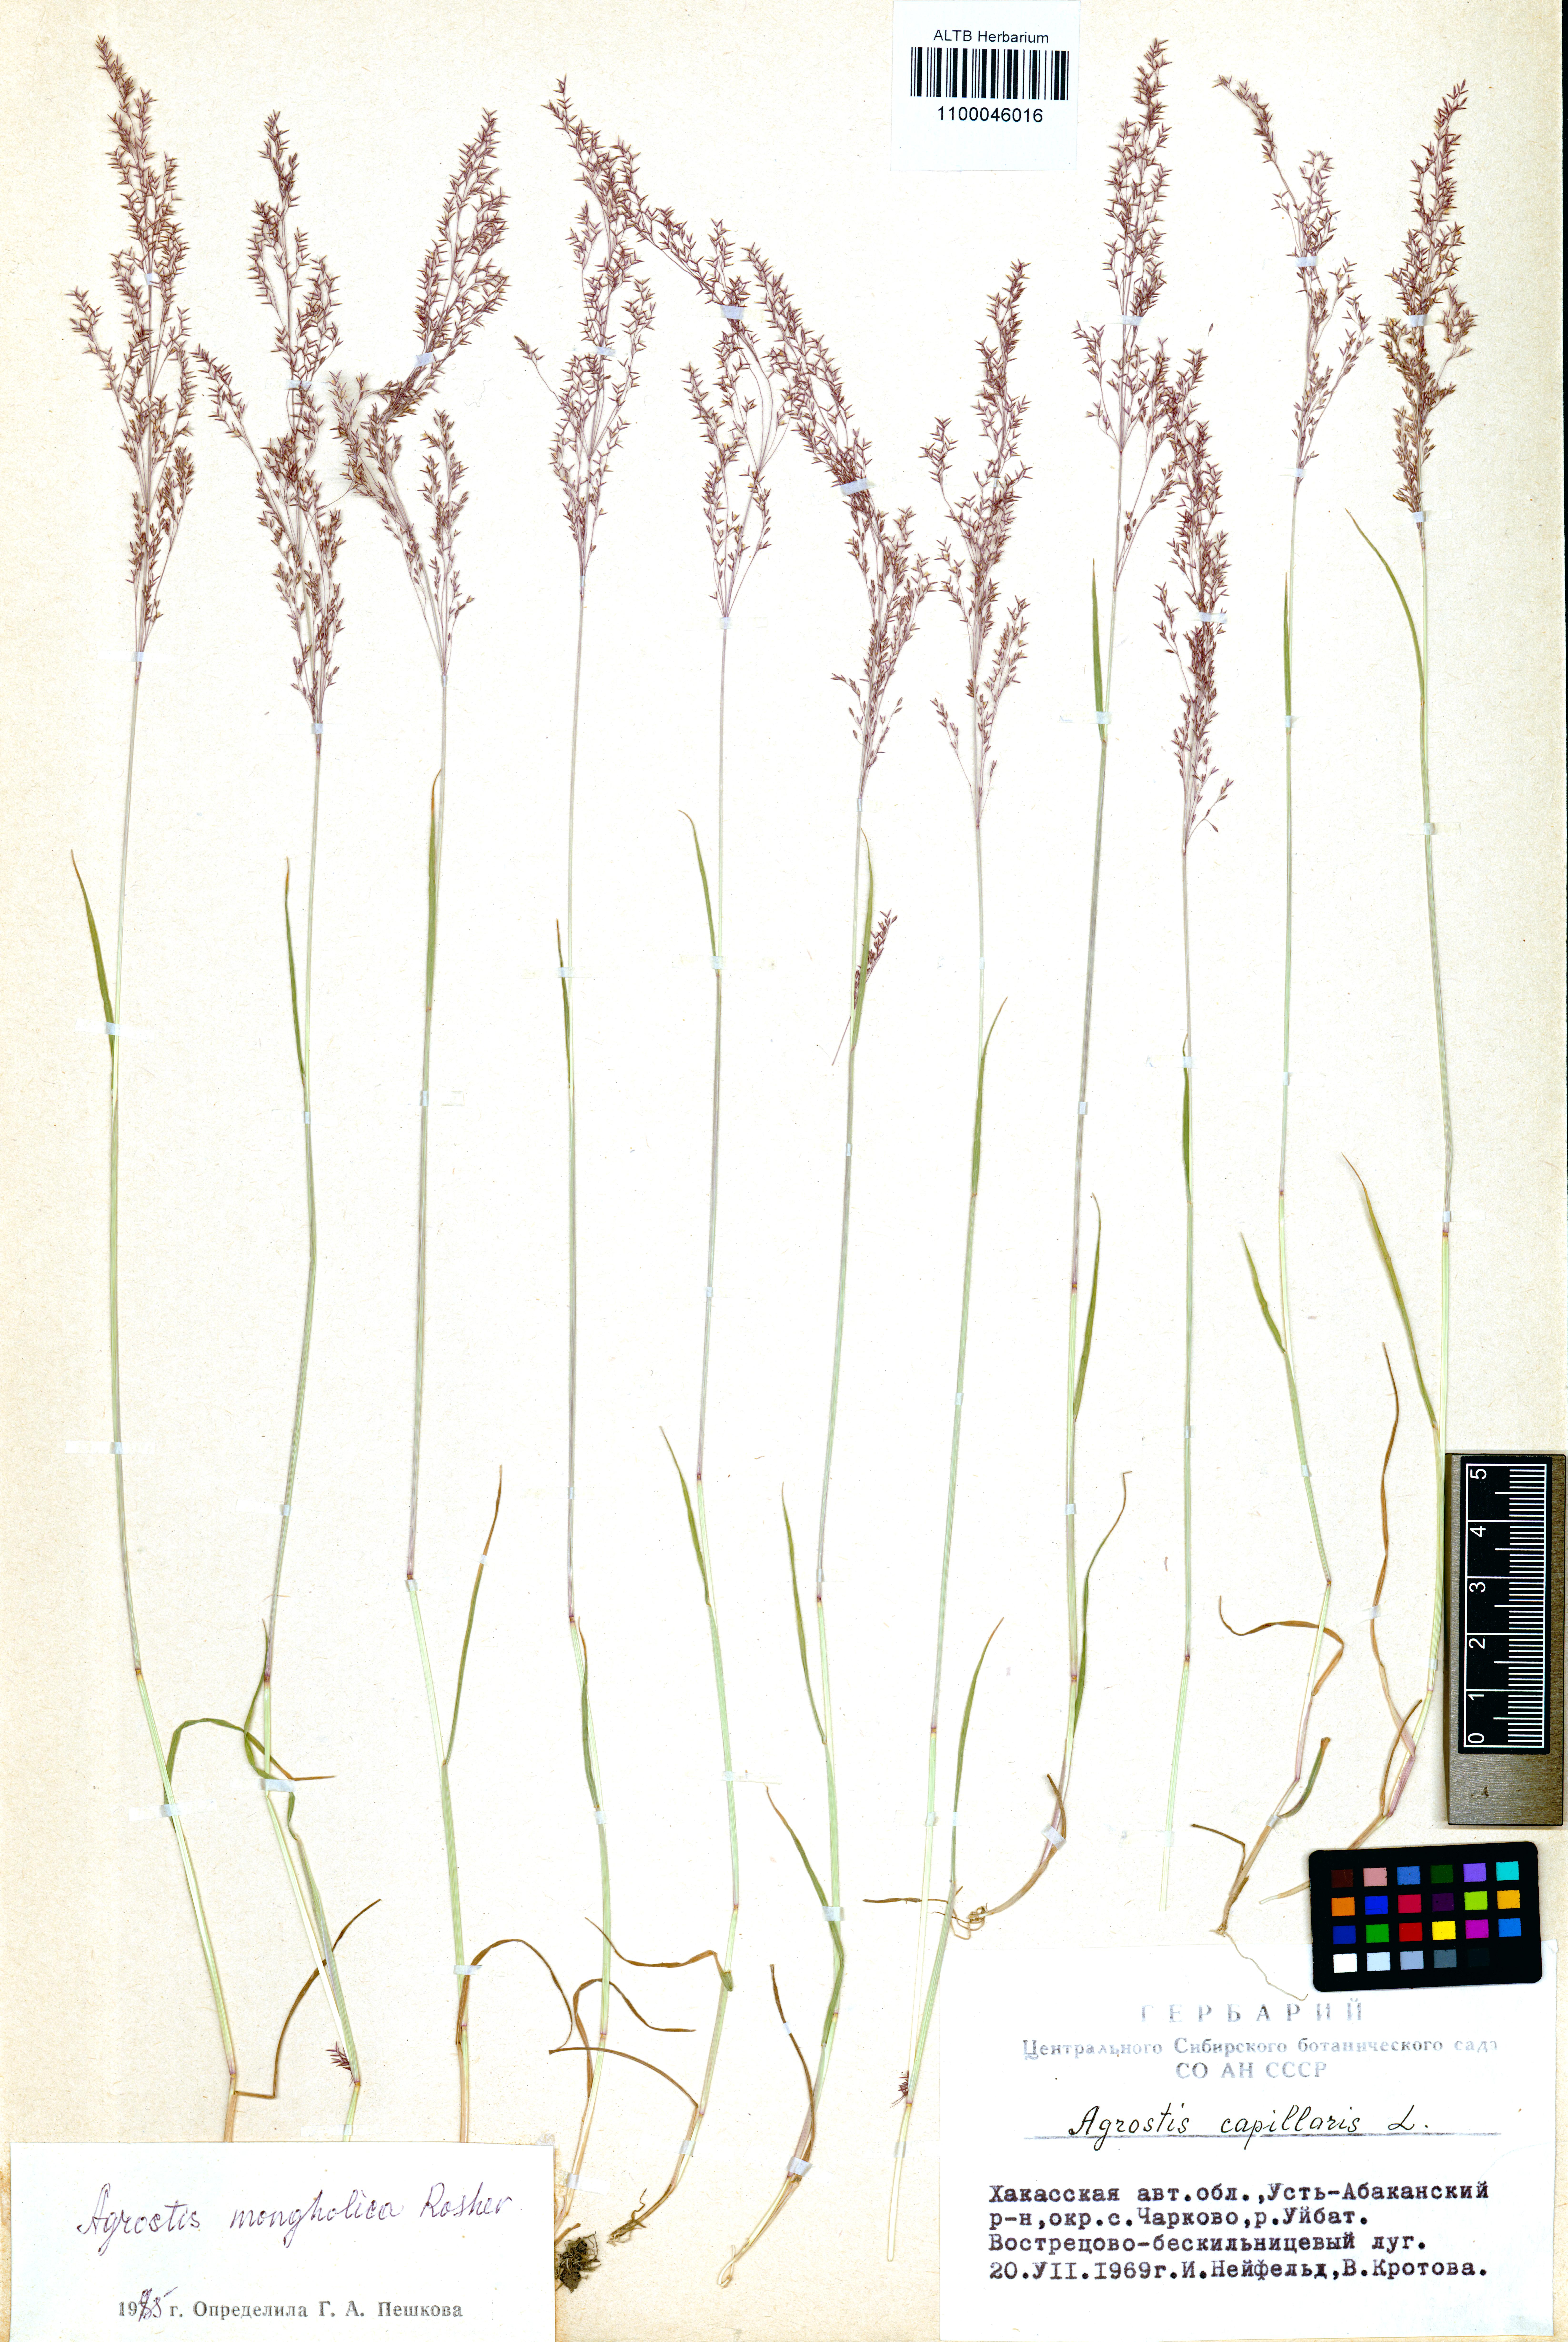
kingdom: Plantae
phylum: Tracheophyta
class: Liliopsida
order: Poales
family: Poaceae
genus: Agrostis
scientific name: Agrostis divaricatissima
